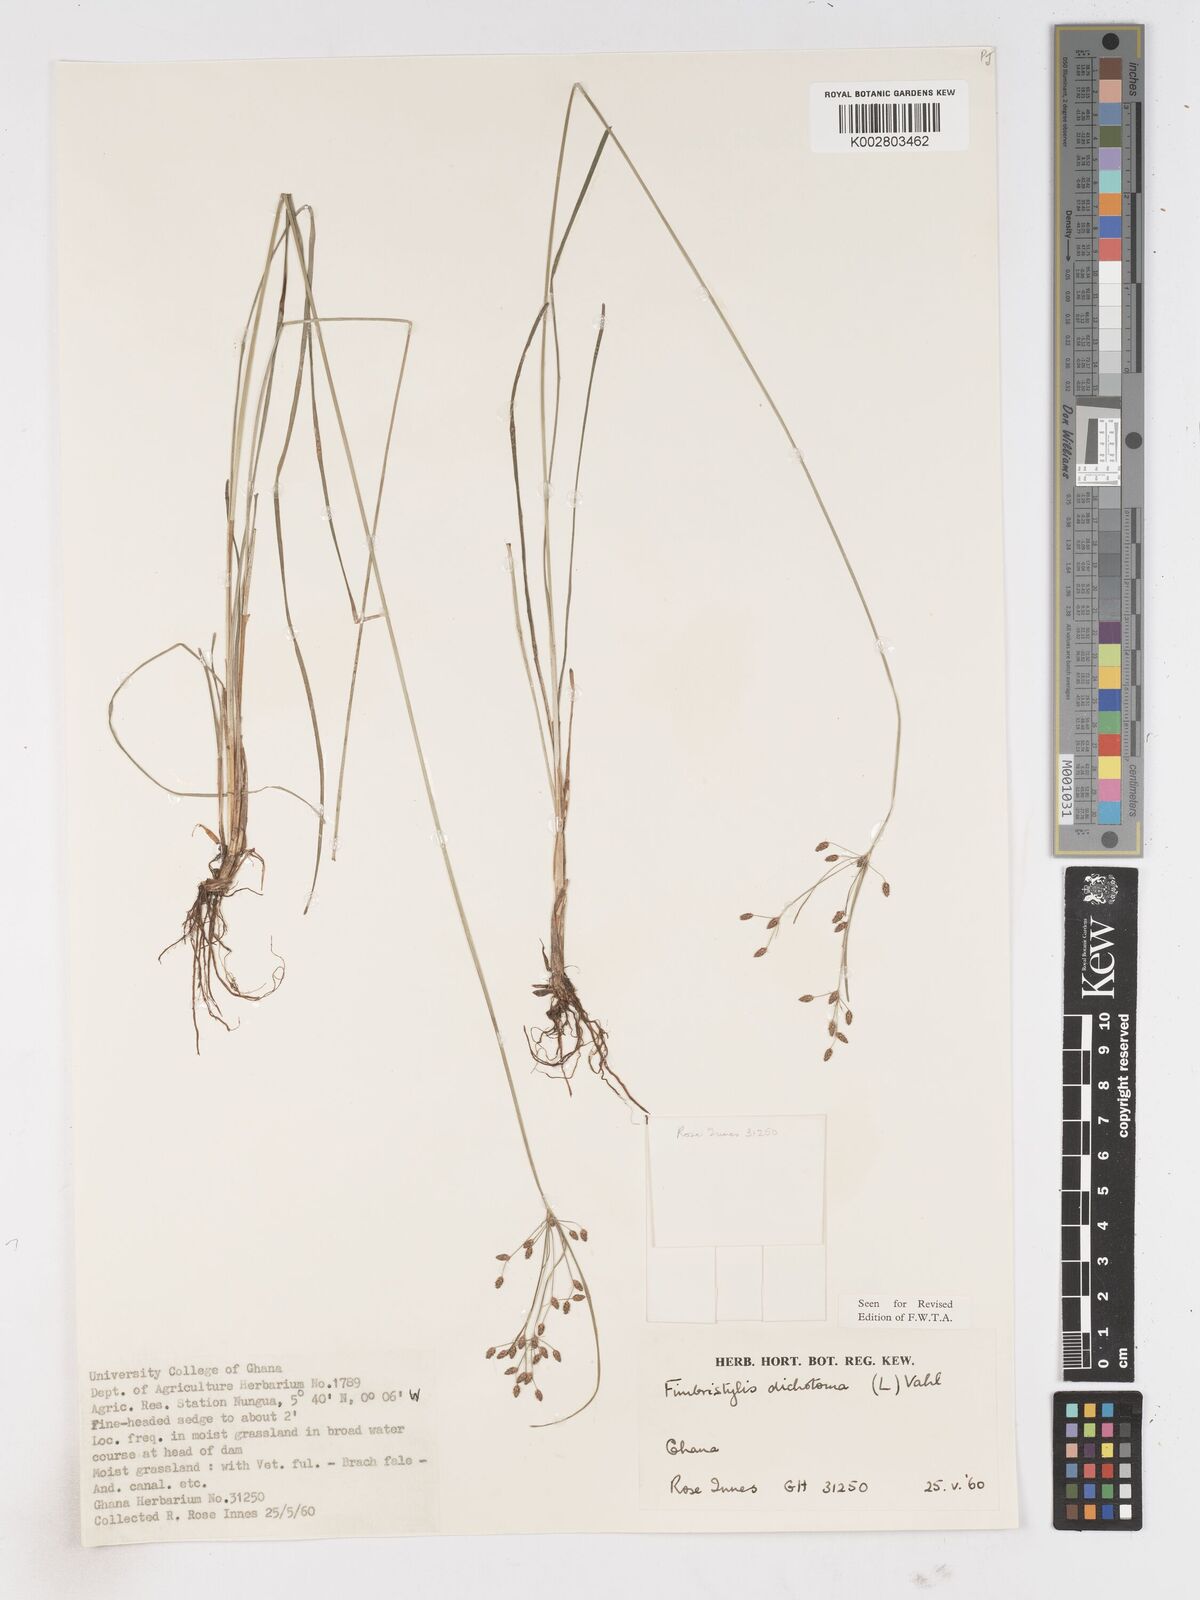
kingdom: Plantae
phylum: Tracheophyta
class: Liliopsida
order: Poales
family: Cyperaceae
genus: Fimbristylis
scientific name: Fimbristylis dichotoma
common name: Forked fimbry
